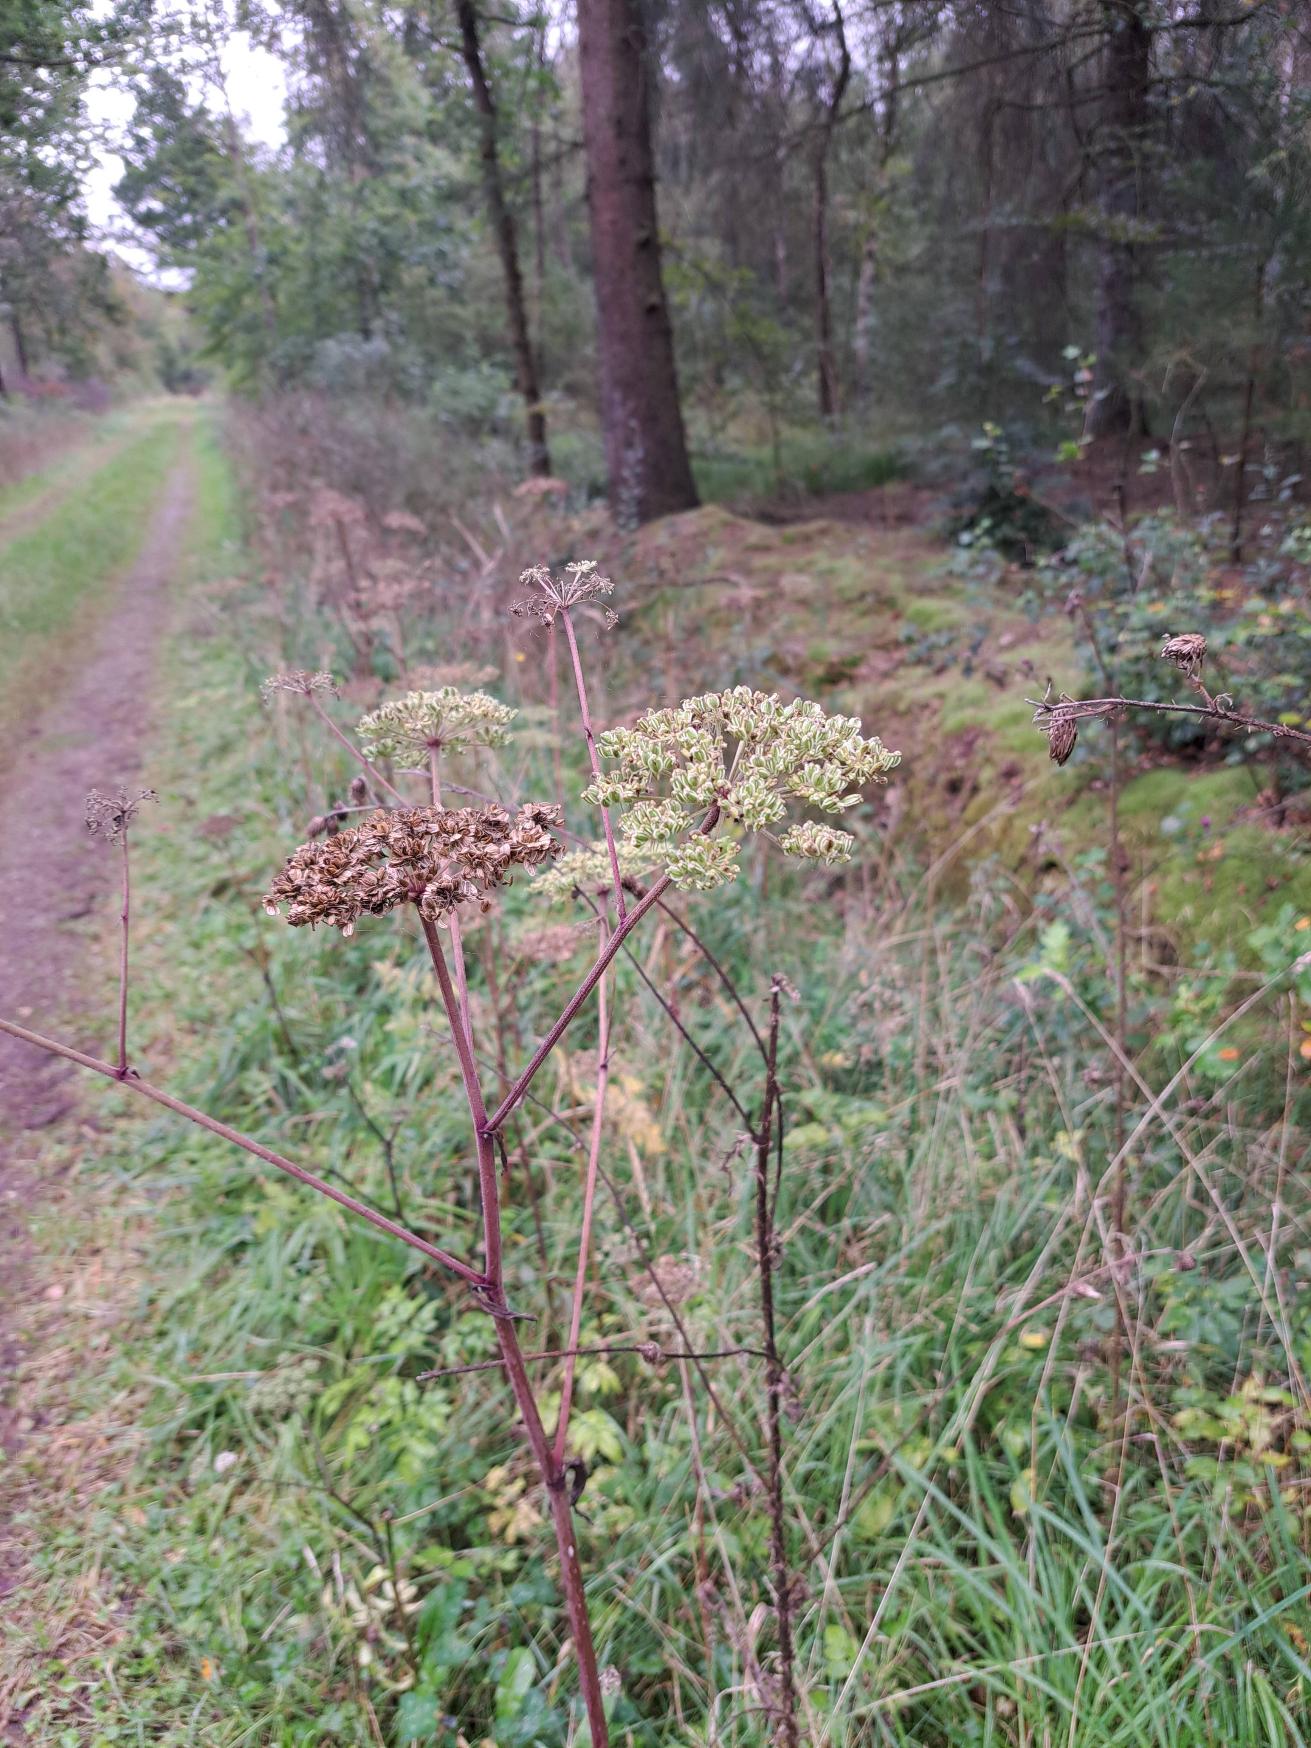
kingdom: Plantae
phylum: Tracheophyta
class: Magnoliopsida
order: Apiales
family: Apiaceae
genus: Angelica
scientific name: Angelica sylvestris
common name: Angelik
